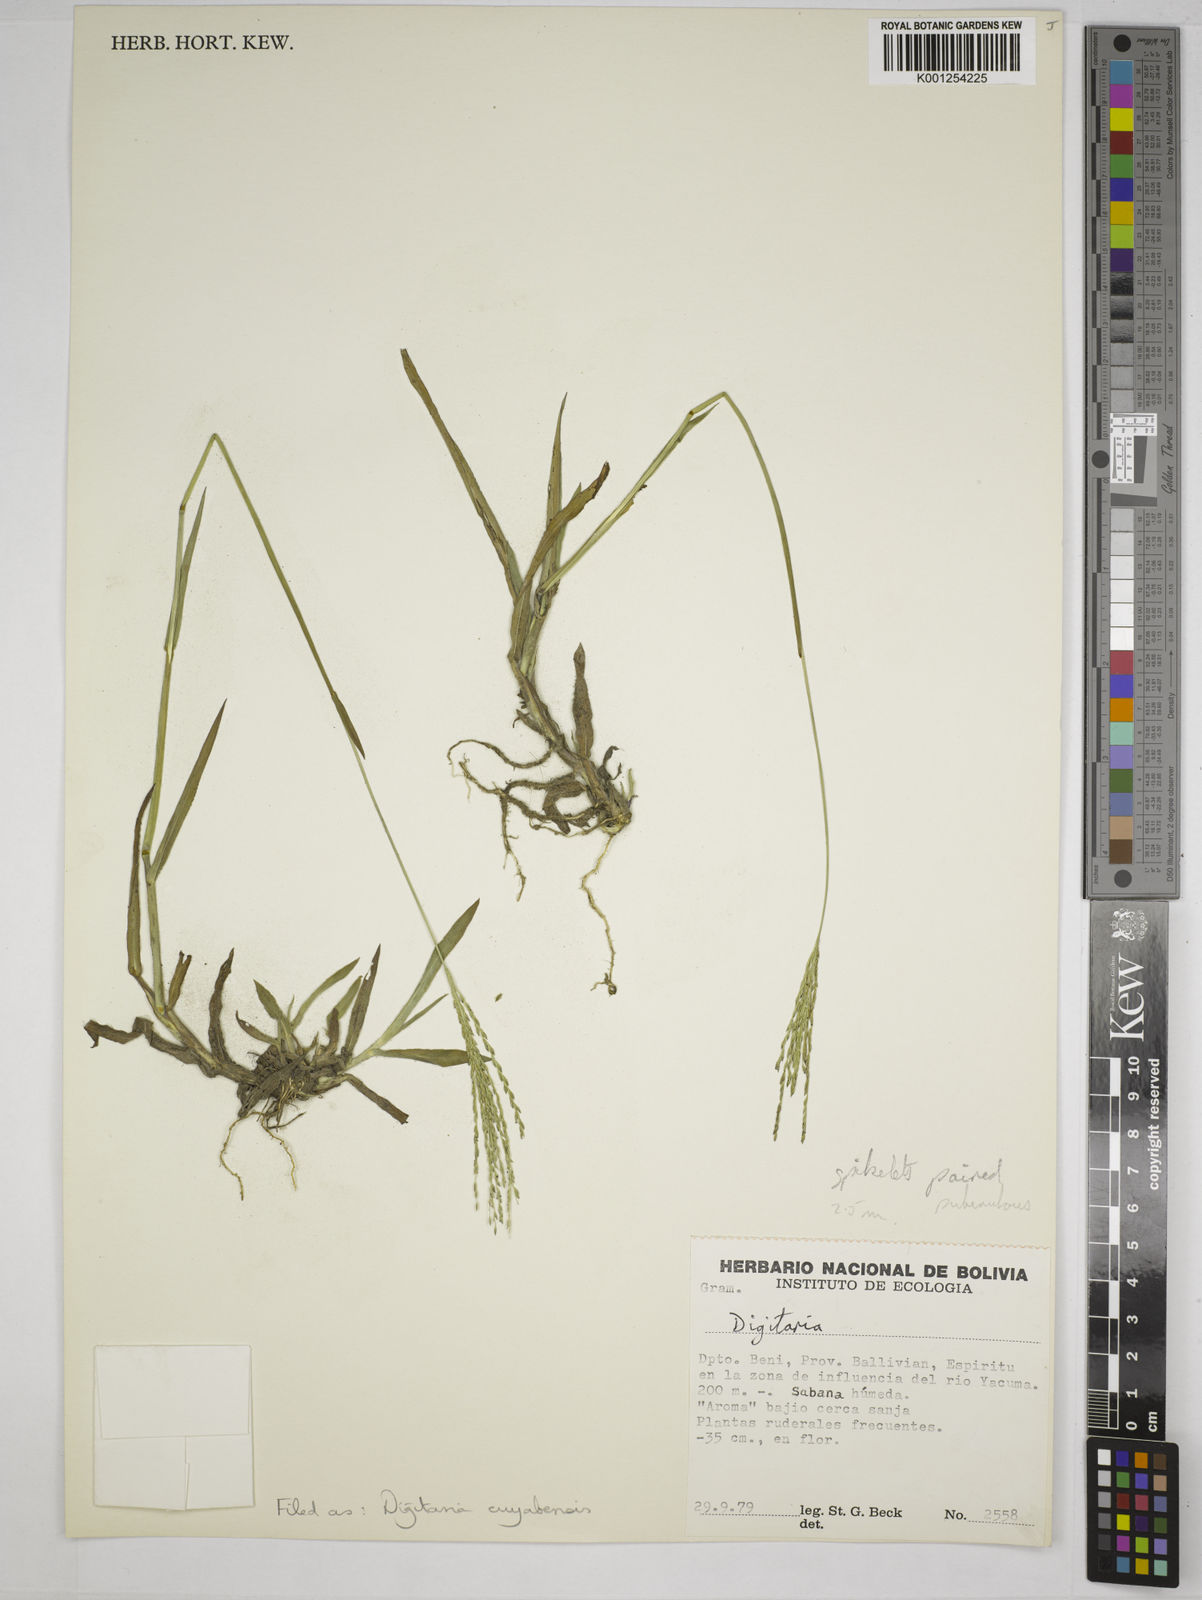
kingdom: Plantae
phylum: Tracheophyta
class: Liliopsida
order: Poales
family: Poaceae
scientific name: Poaceae
